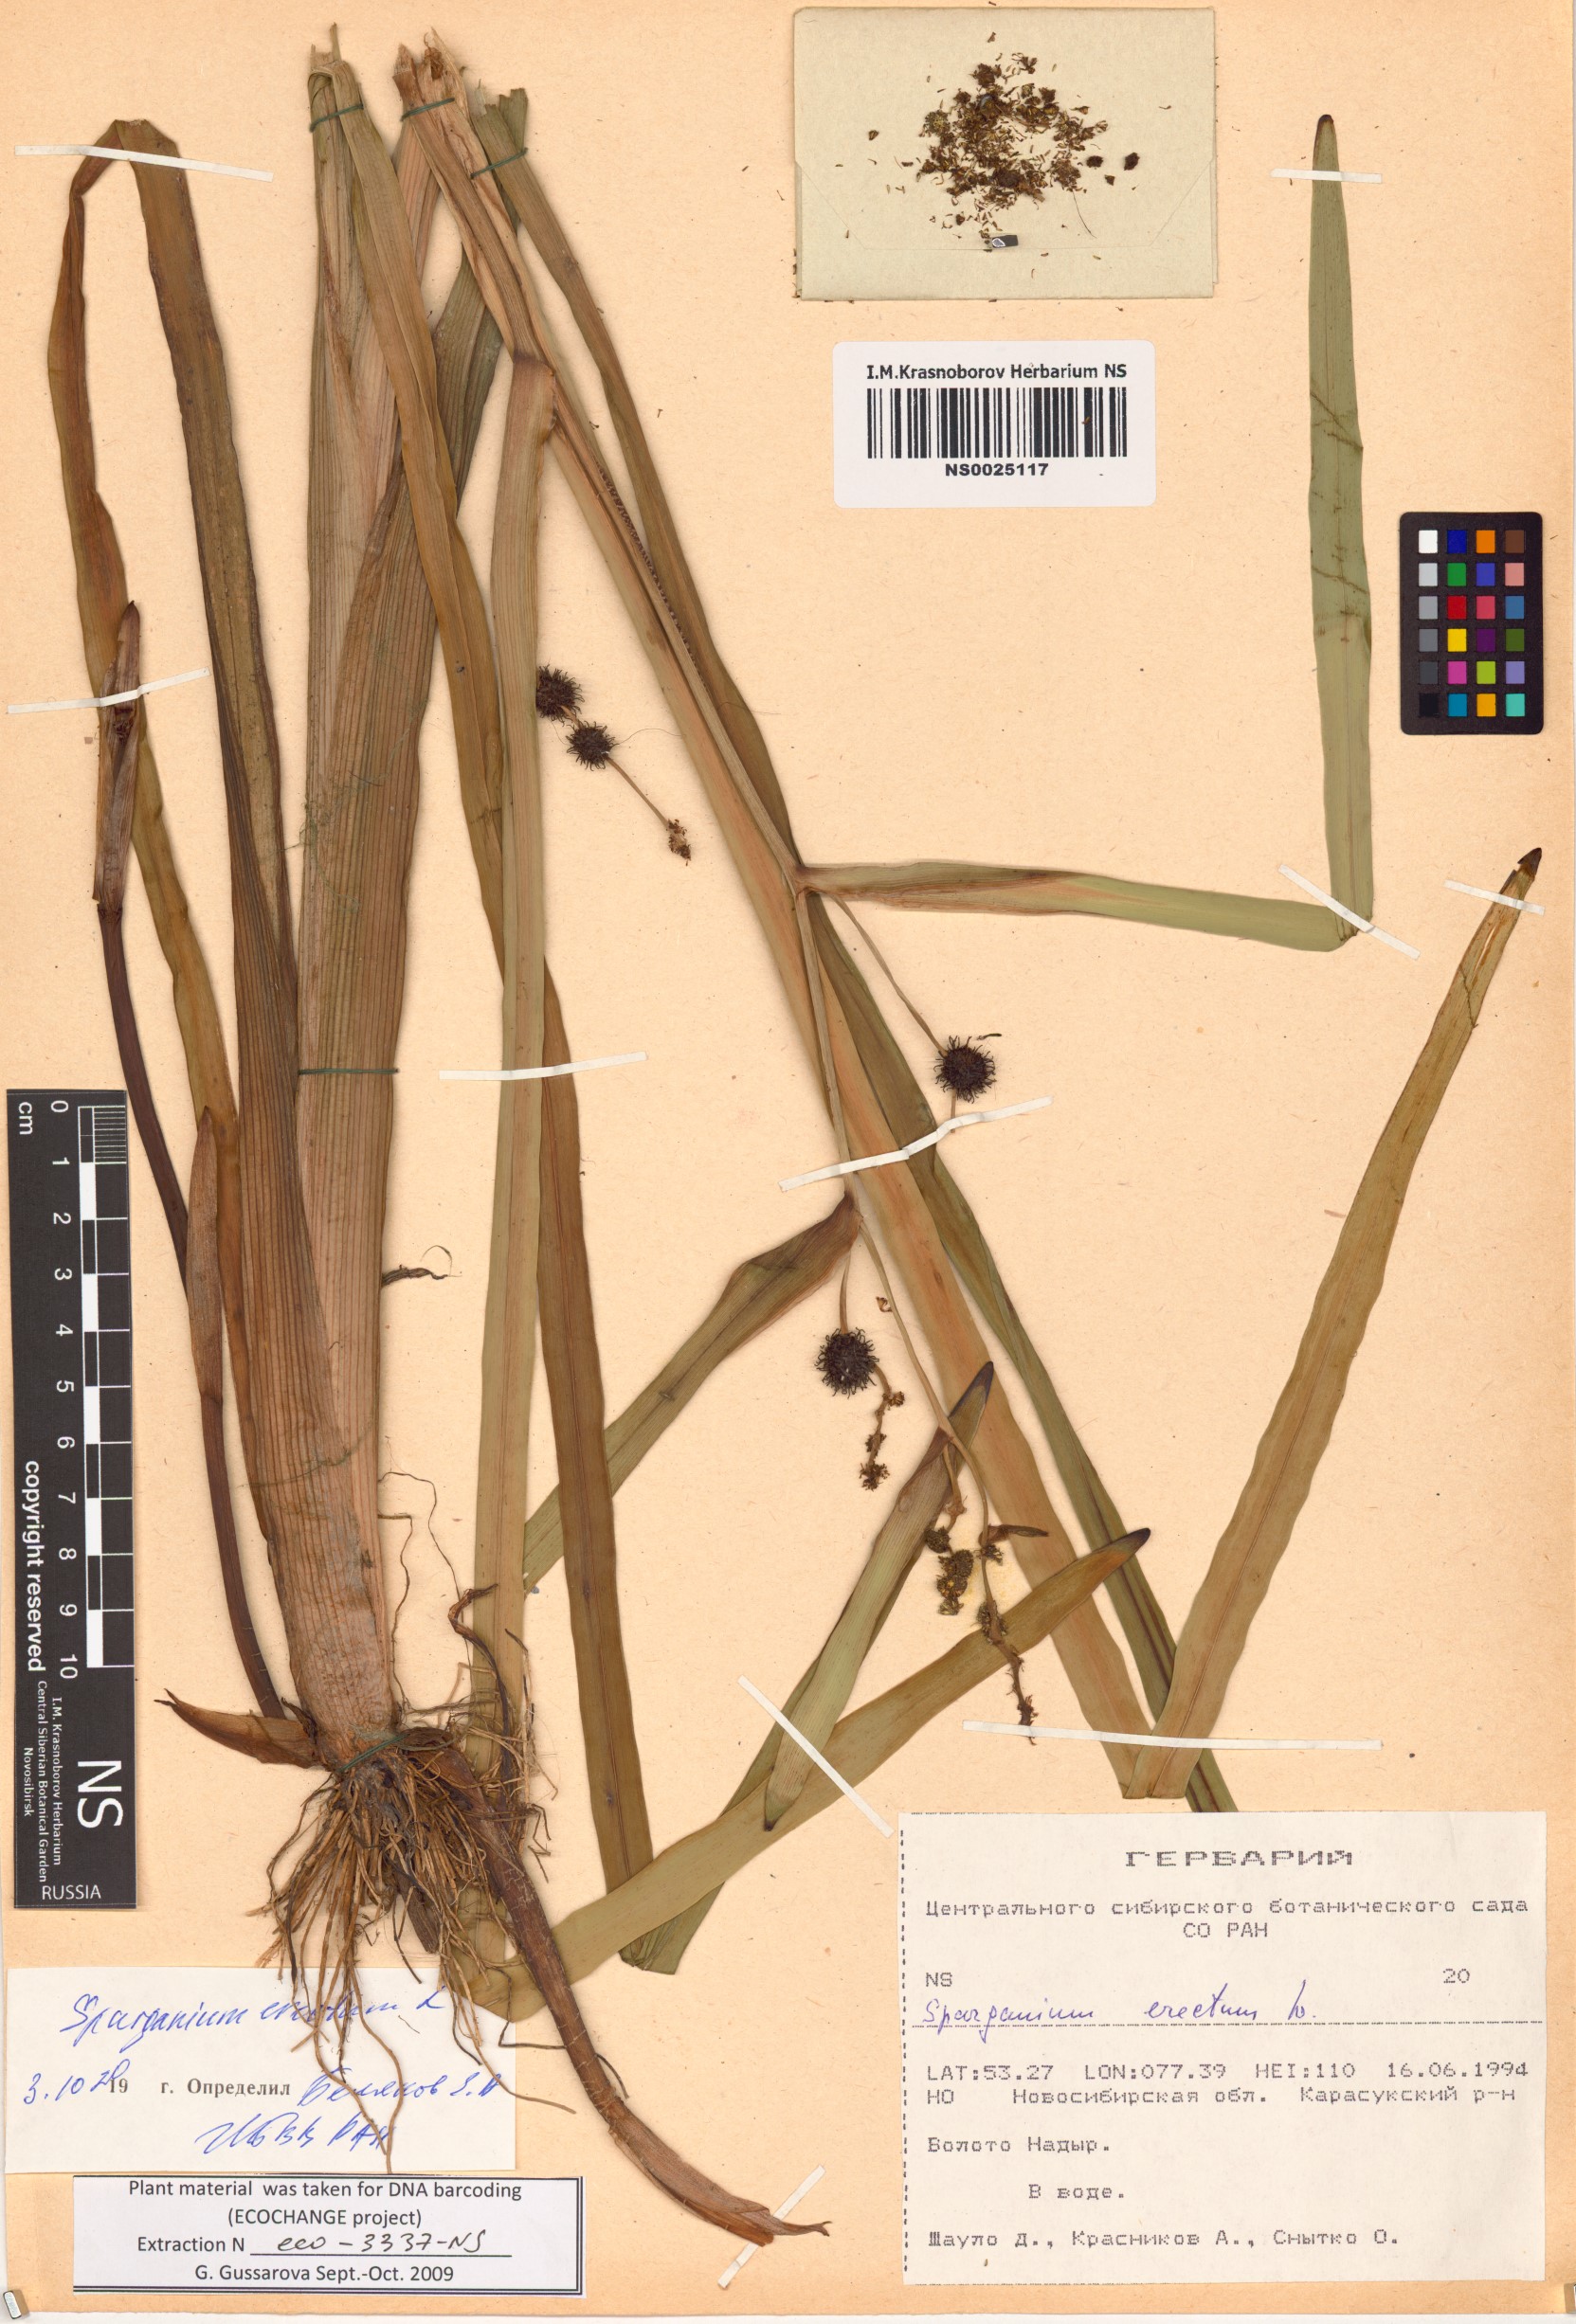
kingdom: Plantae
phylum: Tracheophyta
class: Liliopsida
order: Poales
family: Typhaceae
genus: Sparganium
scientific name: Sparganium erectum
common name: Branched bur-reed
